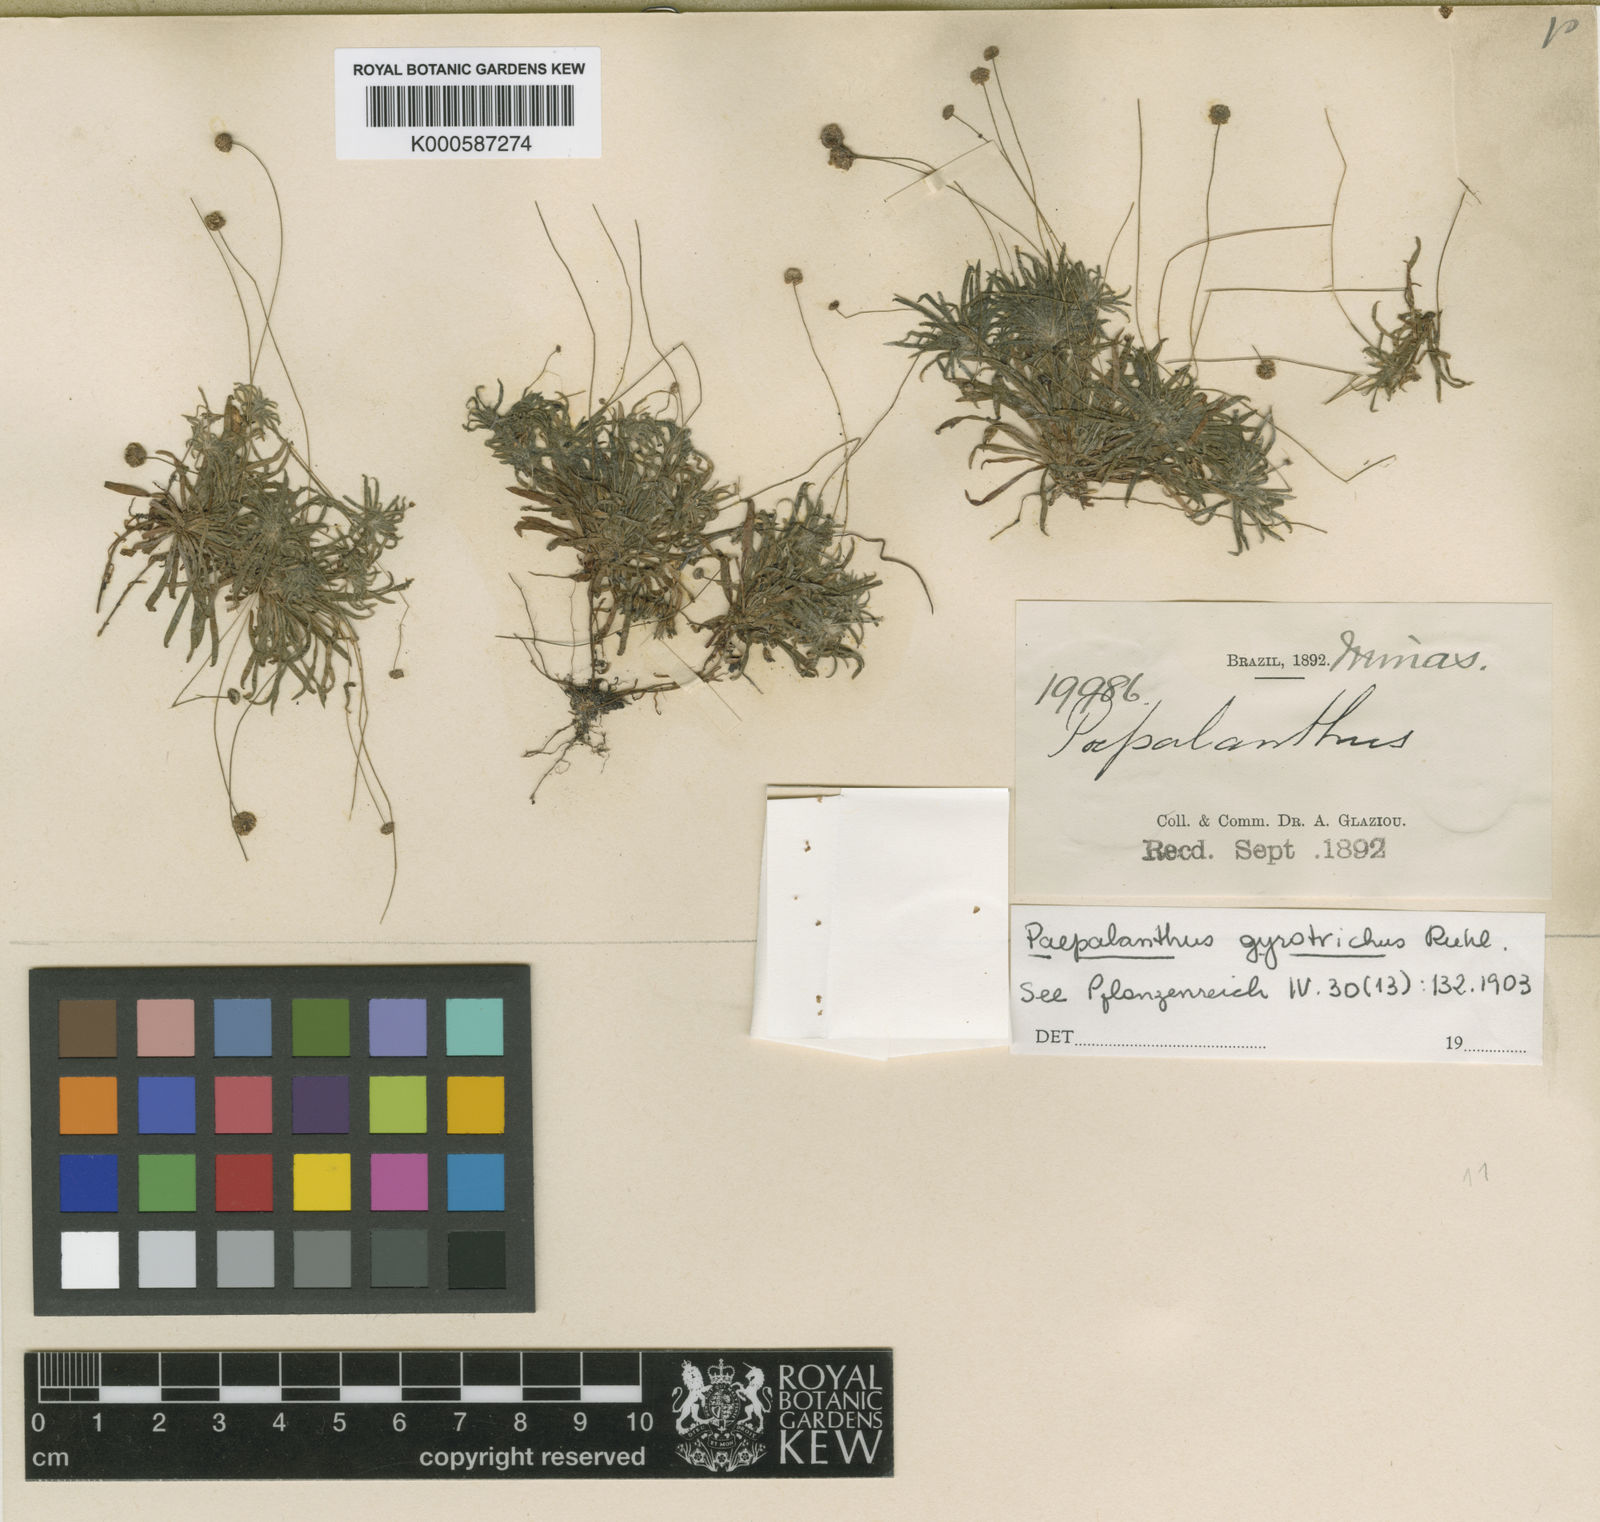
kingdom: Plantae
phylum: Tracheophyta
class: Liliopsida
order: Poales
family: Eriocaulaceae
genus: Paepalanthus
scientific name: Paepalanthus gyrotrichus
